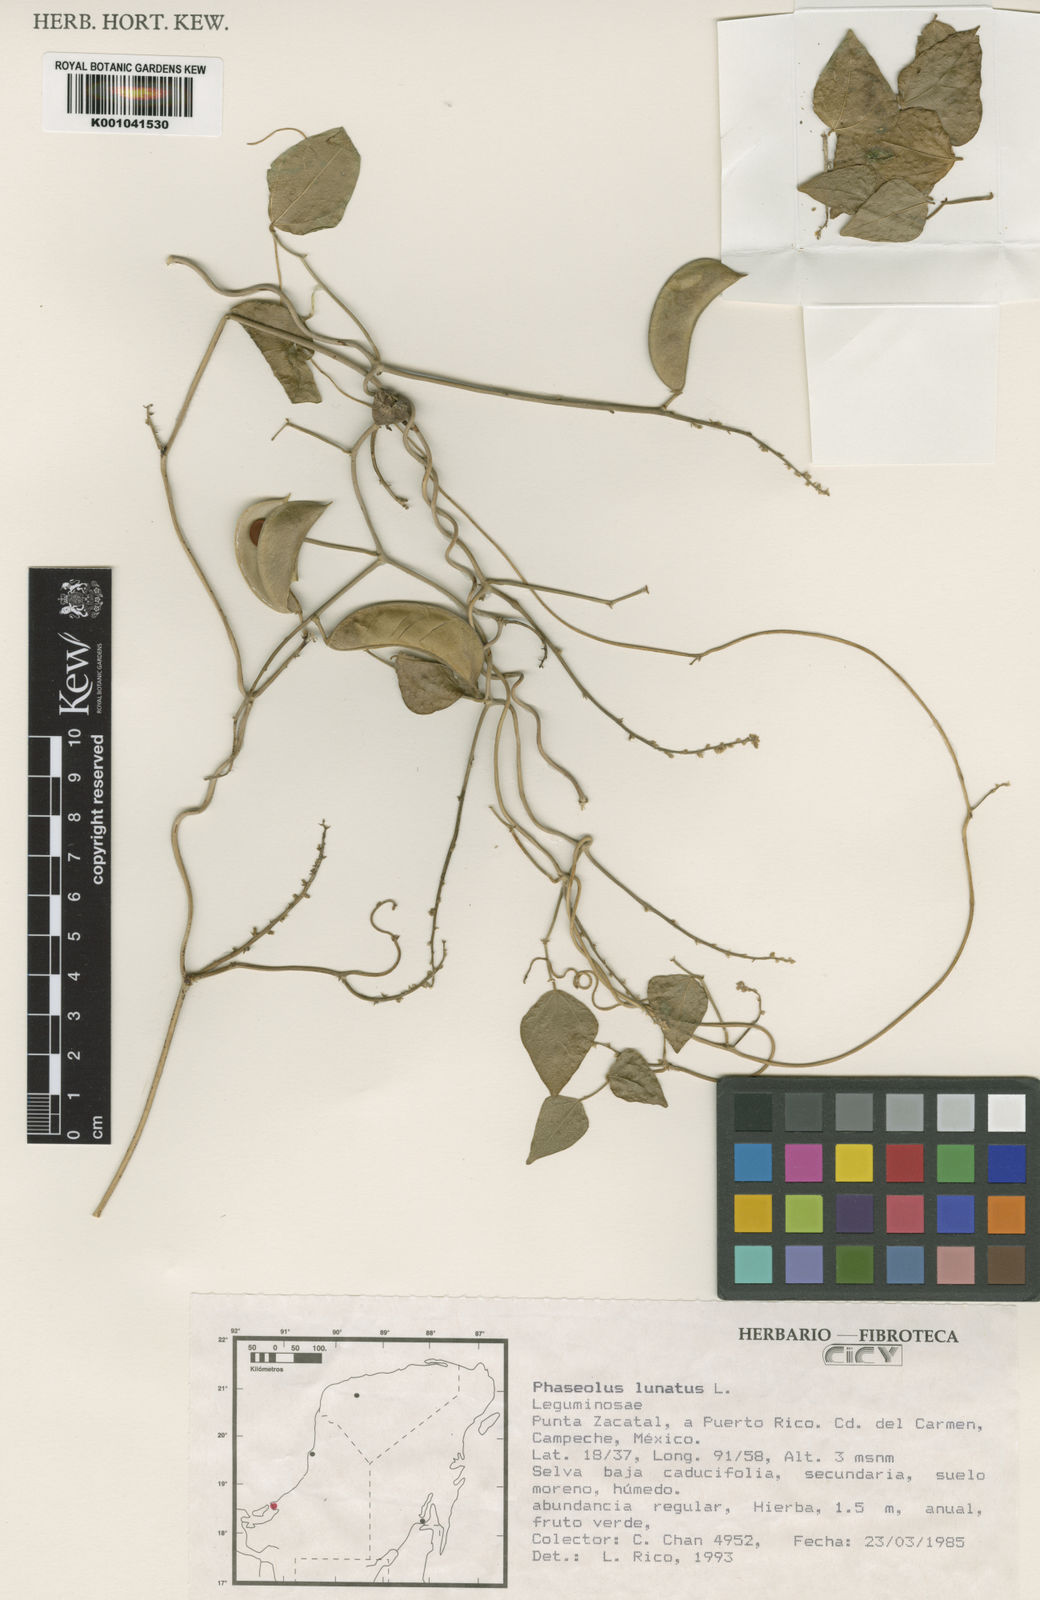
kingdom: Plantae
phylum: Tracheophyta
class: Magnoliopsida
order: Fabales
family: Fabaceae
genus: Phaseolus
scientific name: Phaseolus lunatus
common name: Sieva bean
